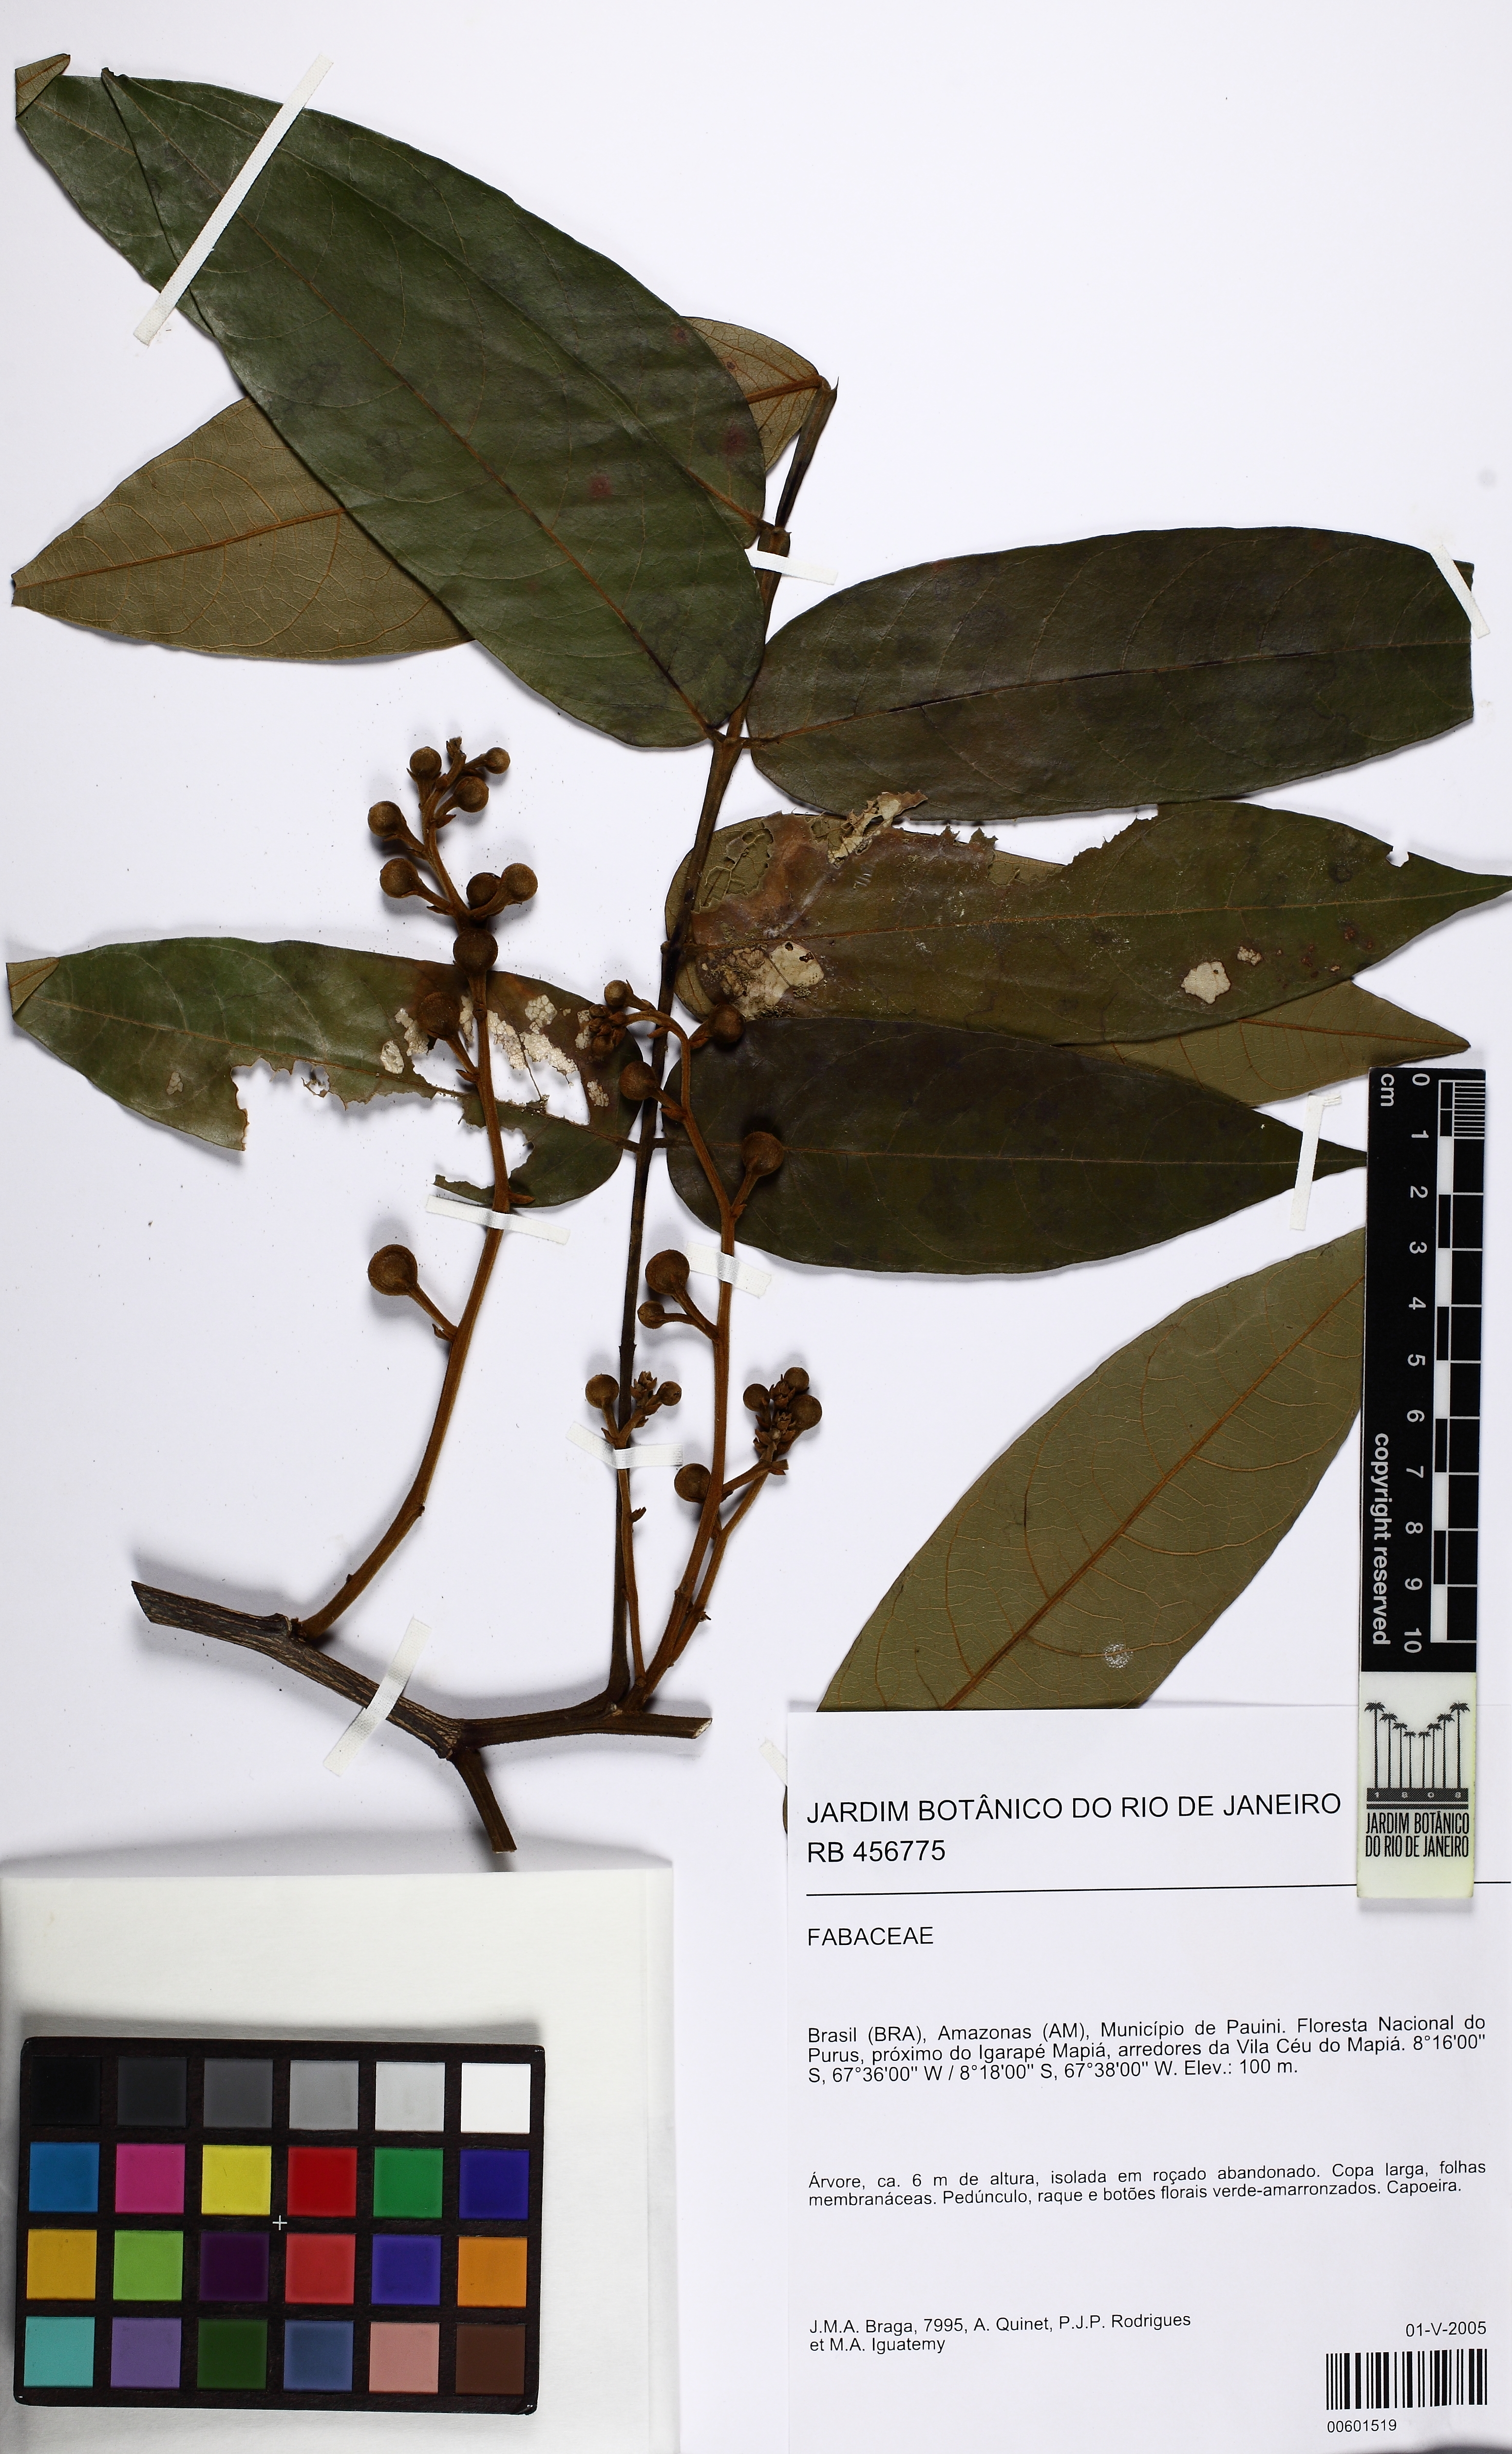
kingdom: Plantae
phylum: Tracheophyta
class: Magnoliopsida
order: Fabales
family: Fabaceae
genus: Swartzia
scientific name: Swartzia acreana
